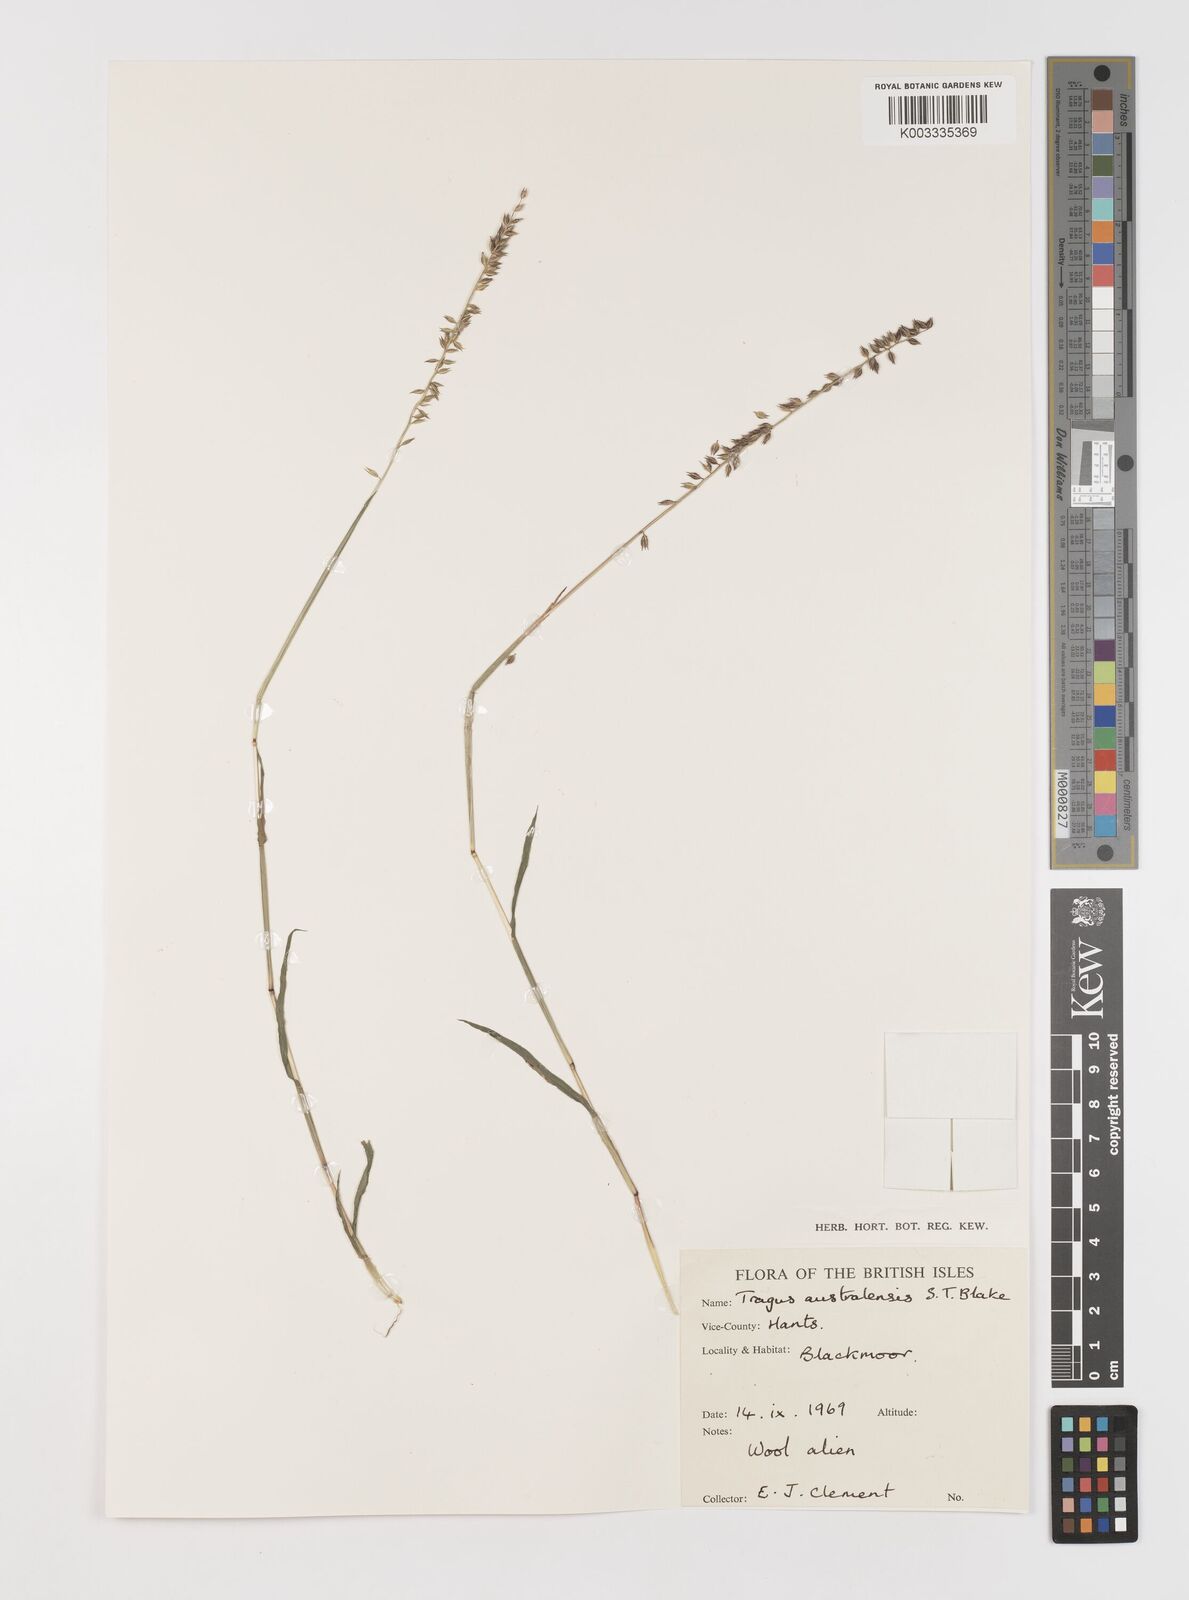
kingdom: Plantae
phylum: Tracheophyta
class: Liliopsida
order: Poales
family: Poaceae
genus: Tragus
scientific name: Tragus australianus
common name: Australian bur-grass
